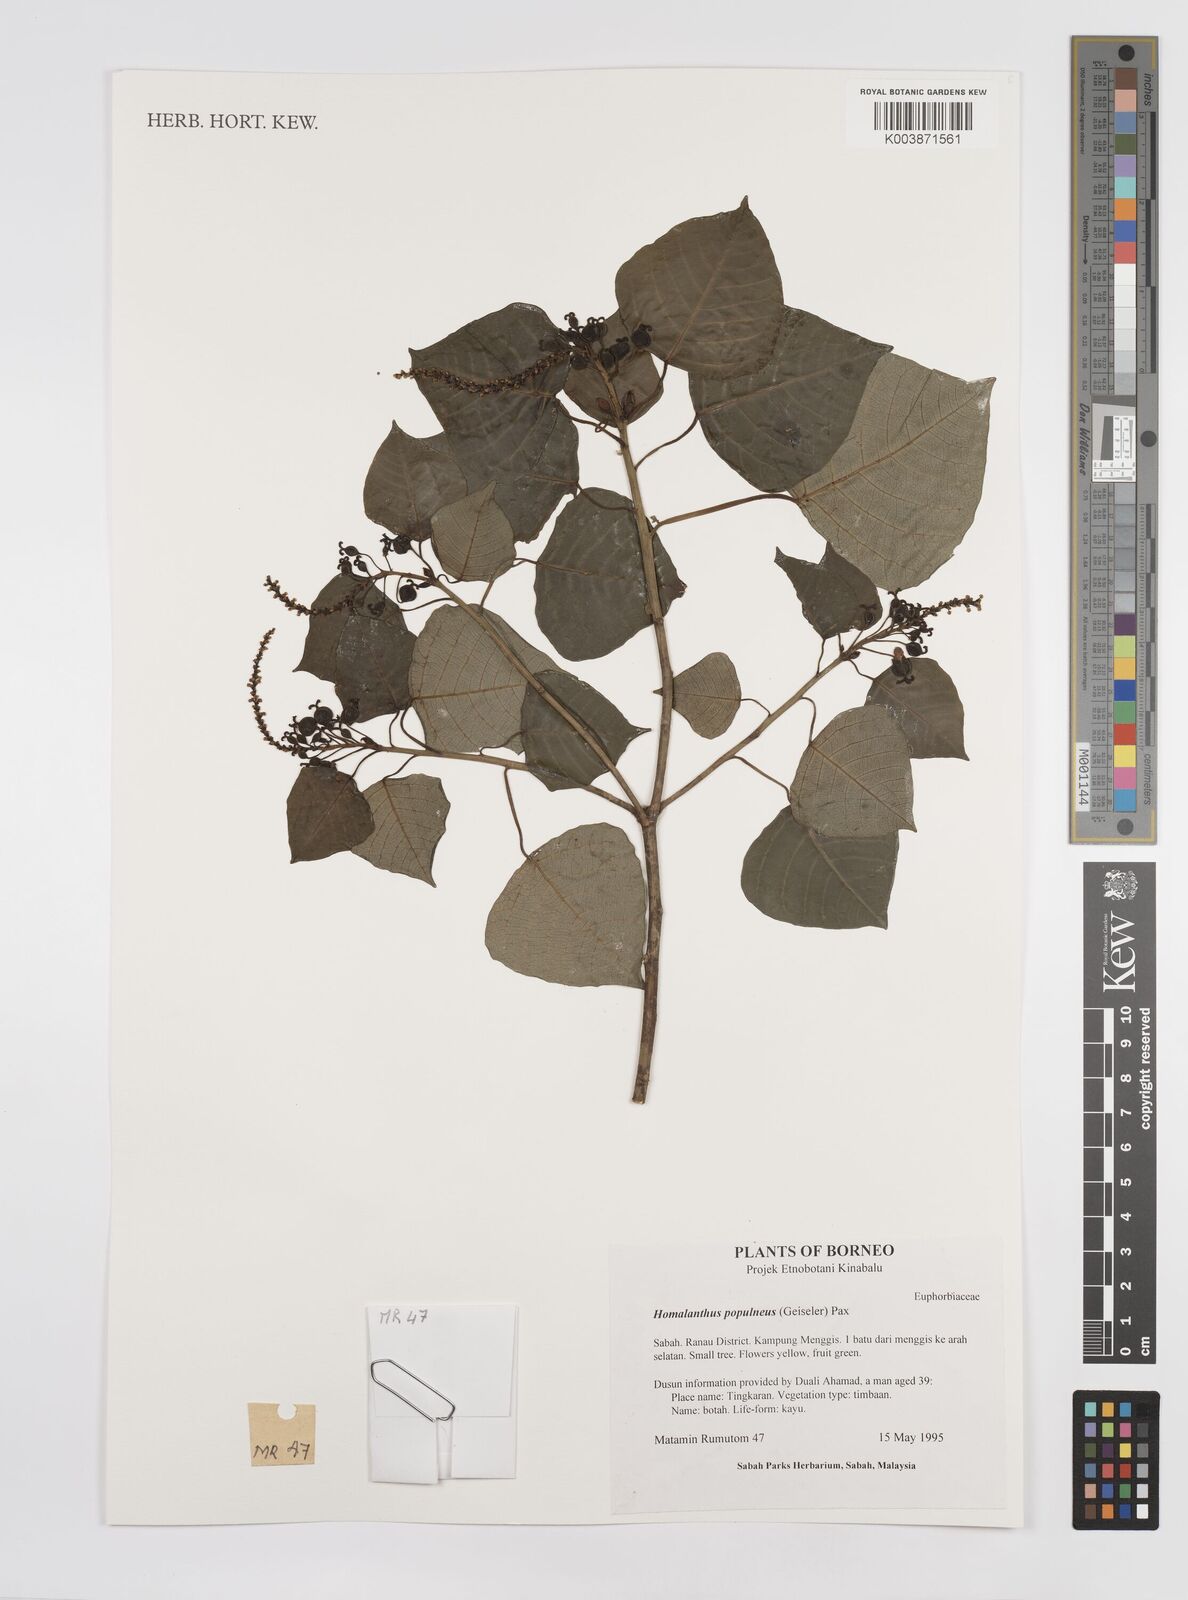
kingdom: Plantae
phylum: Tracheophyta
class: Magnoliopsida
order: Malpighiales
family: Euphorbiaceae
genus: Homalanthus
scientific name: Homalanthus populneus
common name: Spurge
